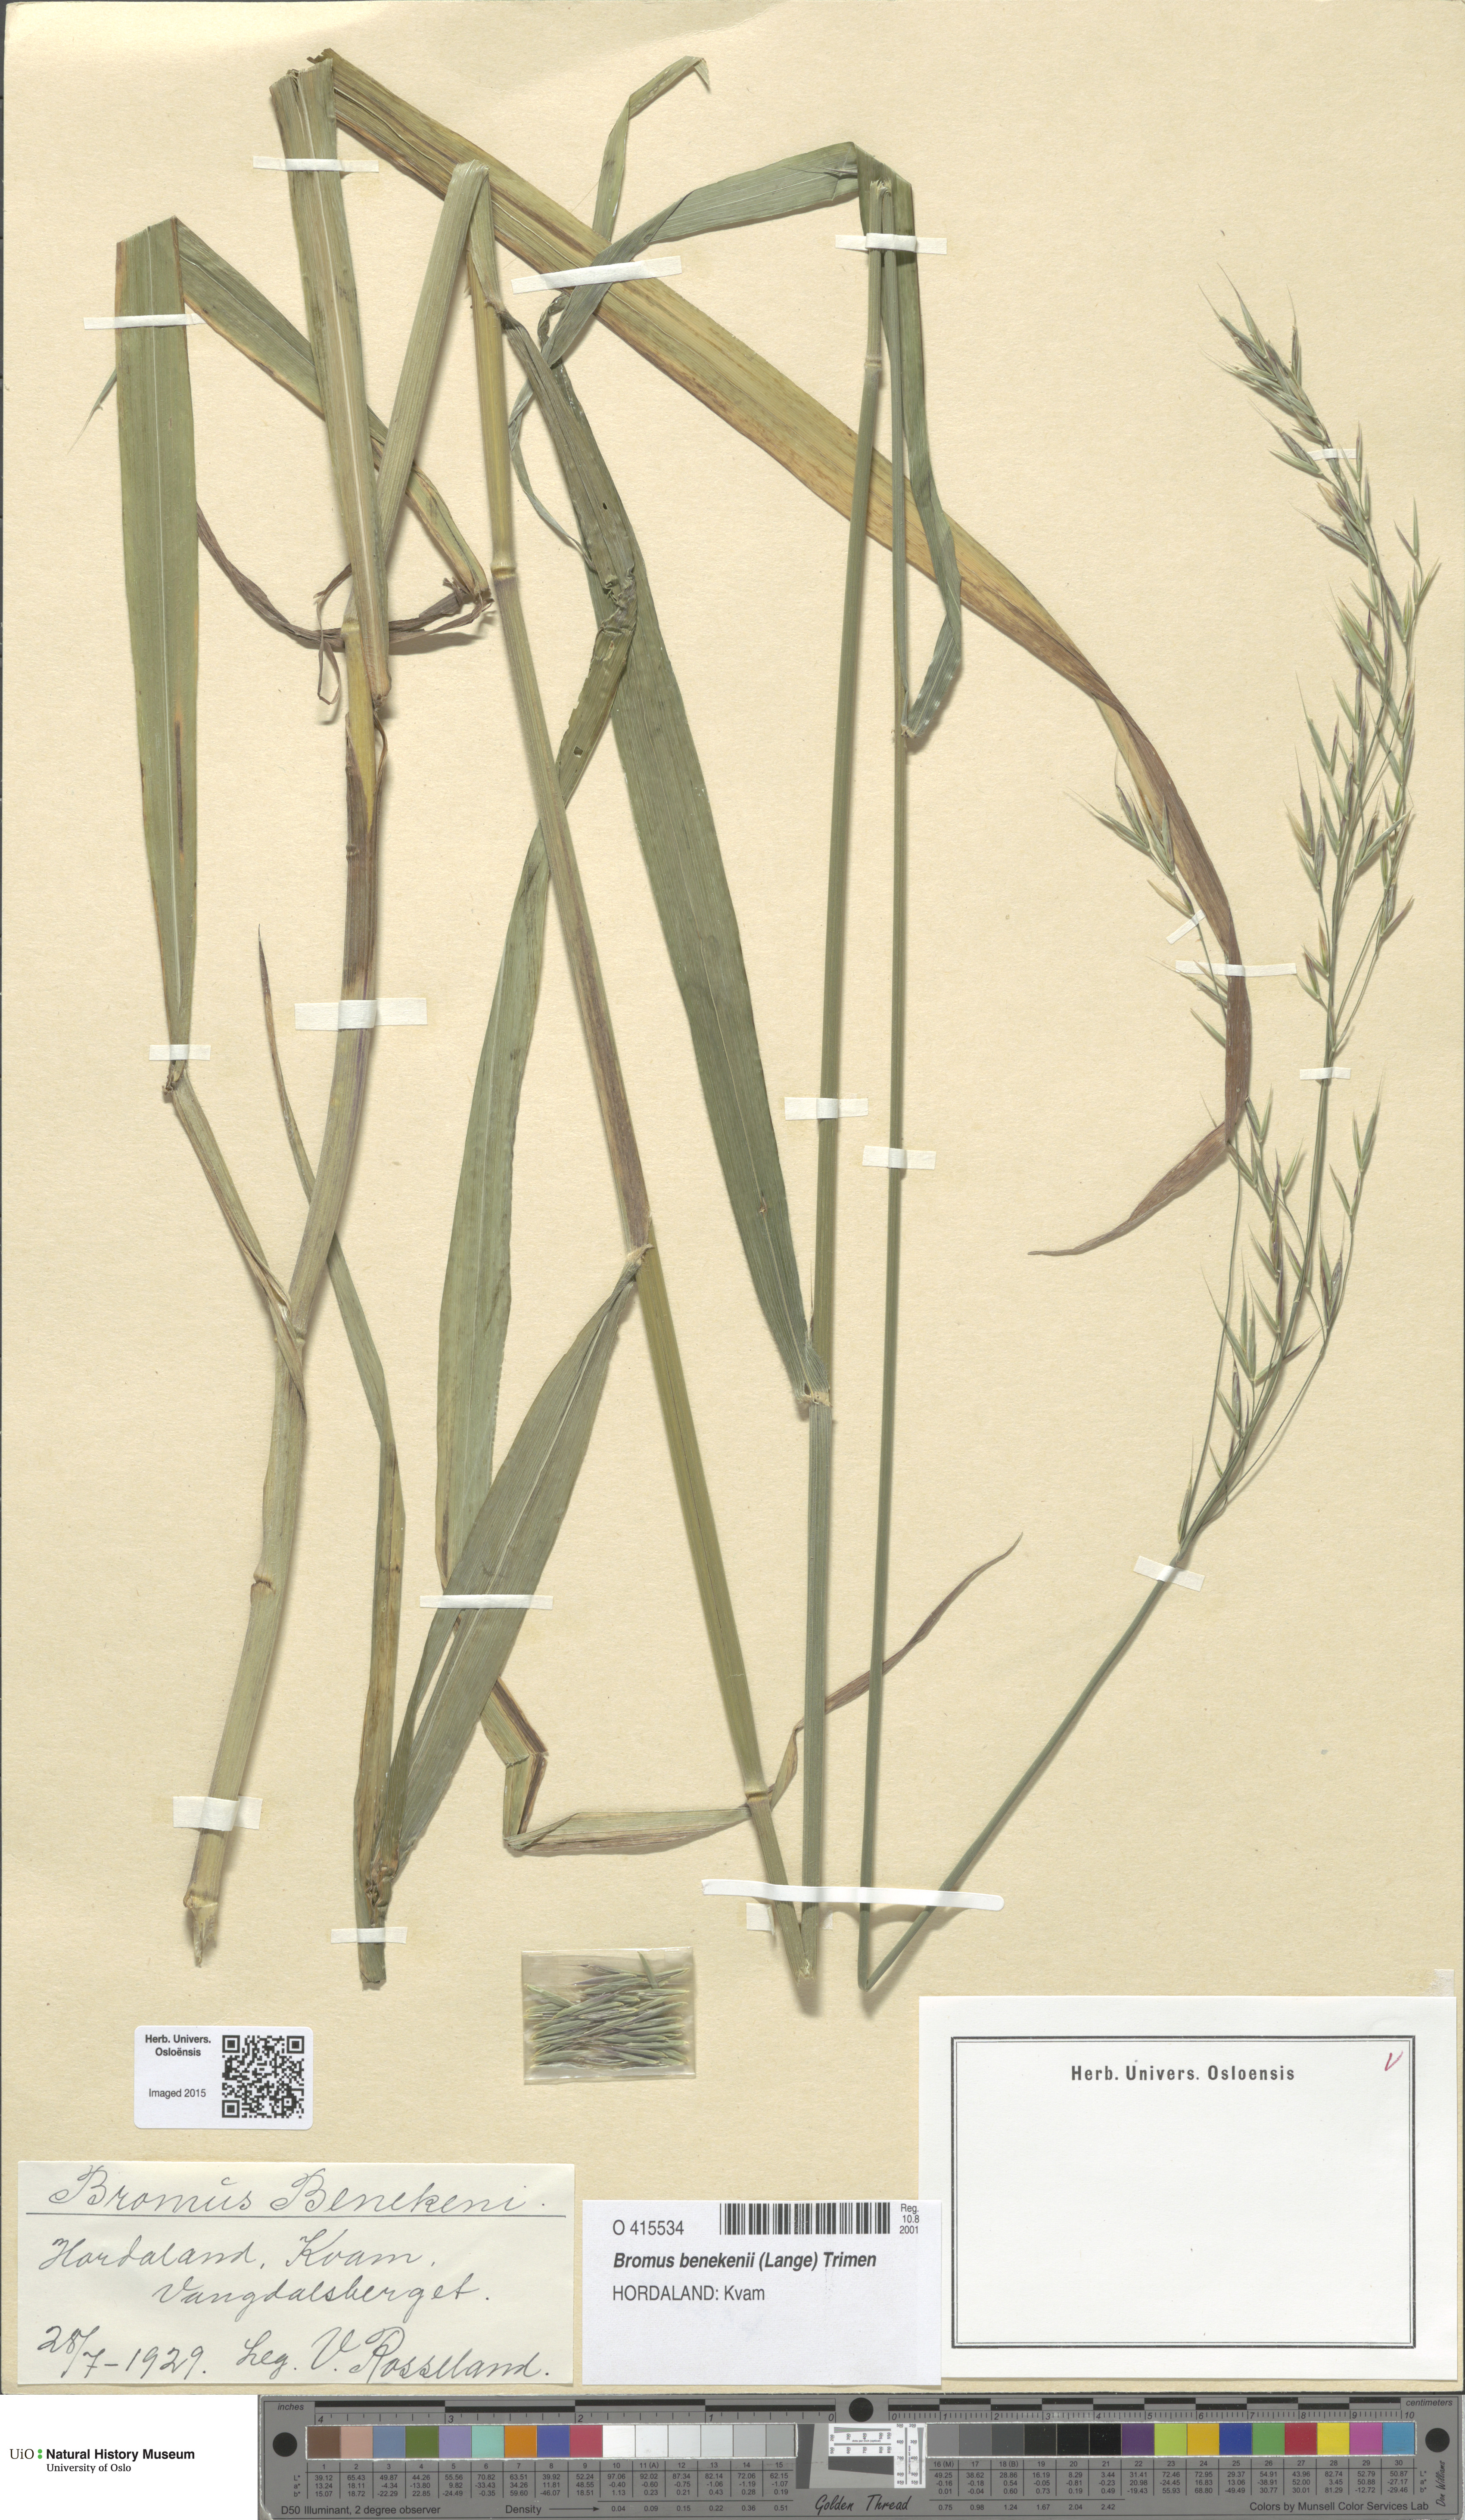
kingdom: Plantae
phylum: Tracheophyta
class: Liliopsida
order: Poales
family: Poaceae
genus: Bromus
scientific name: Bromus benekenii
